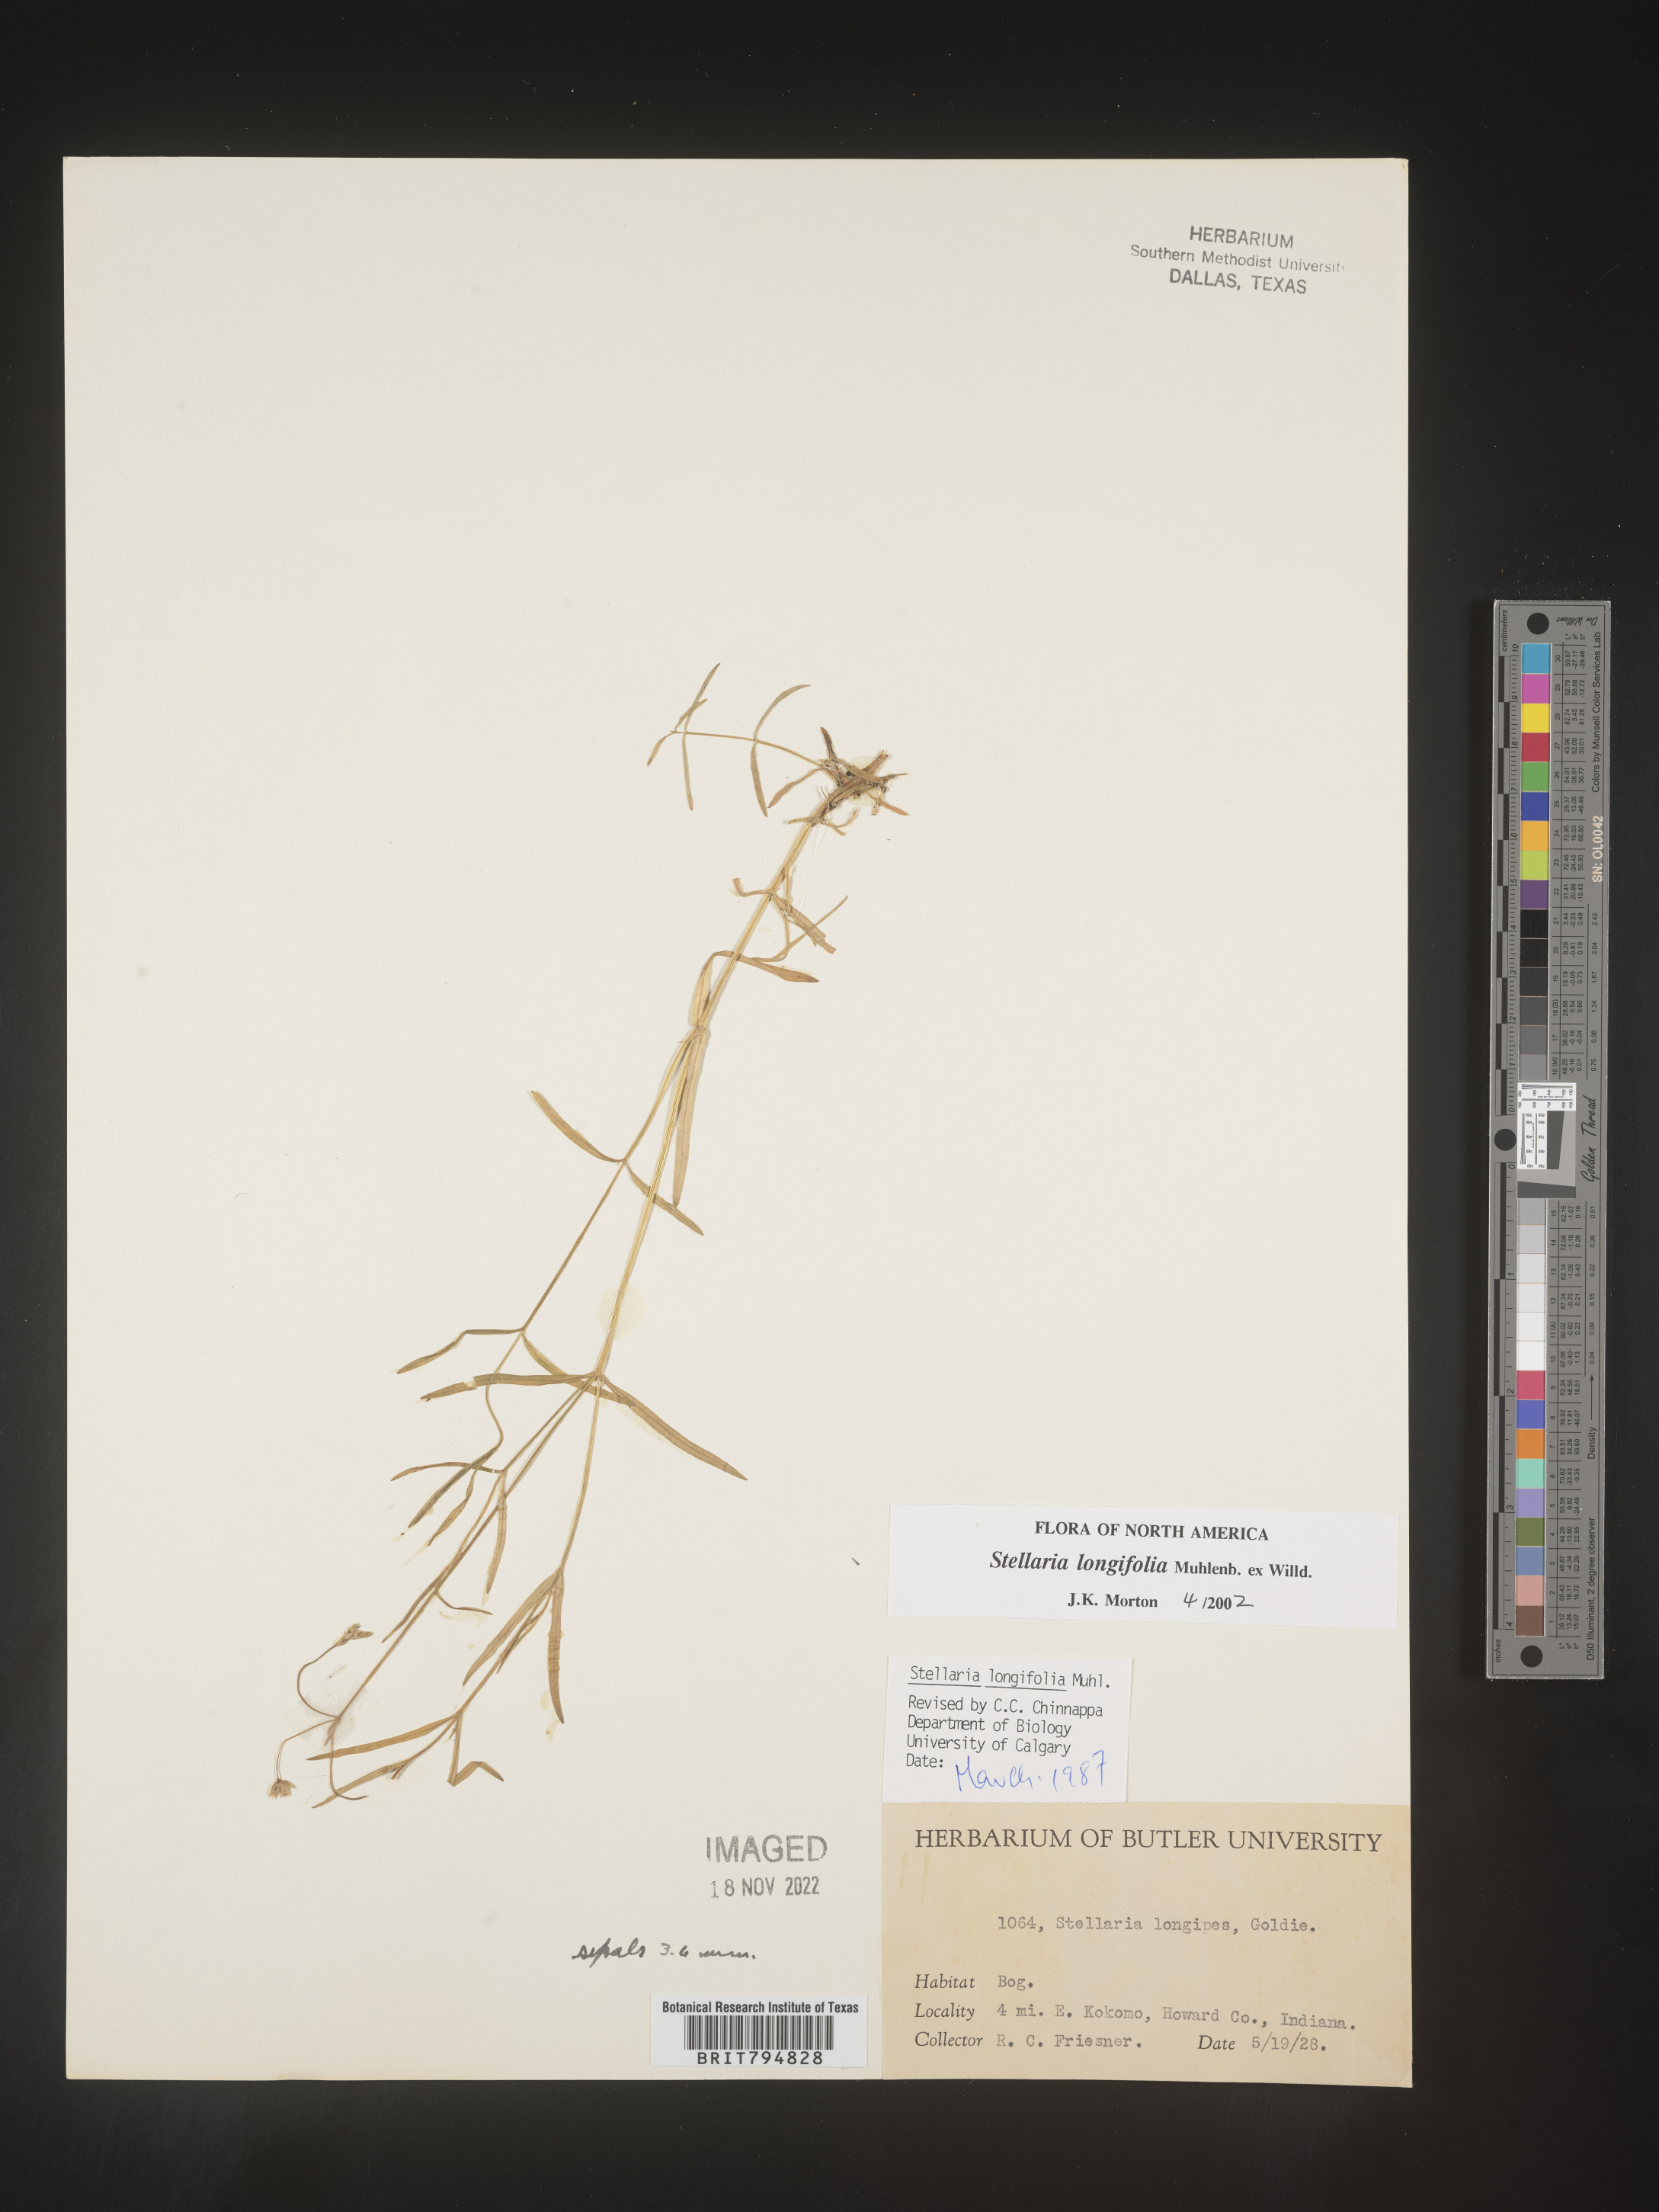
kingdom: Plantae
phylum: Tracheophyta
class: Magnoliopsida
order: Caryophyllales
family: Caryophyllaceae
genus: Stellaria
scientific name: Stellaria longifolia
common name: Long-leaved chickweed
